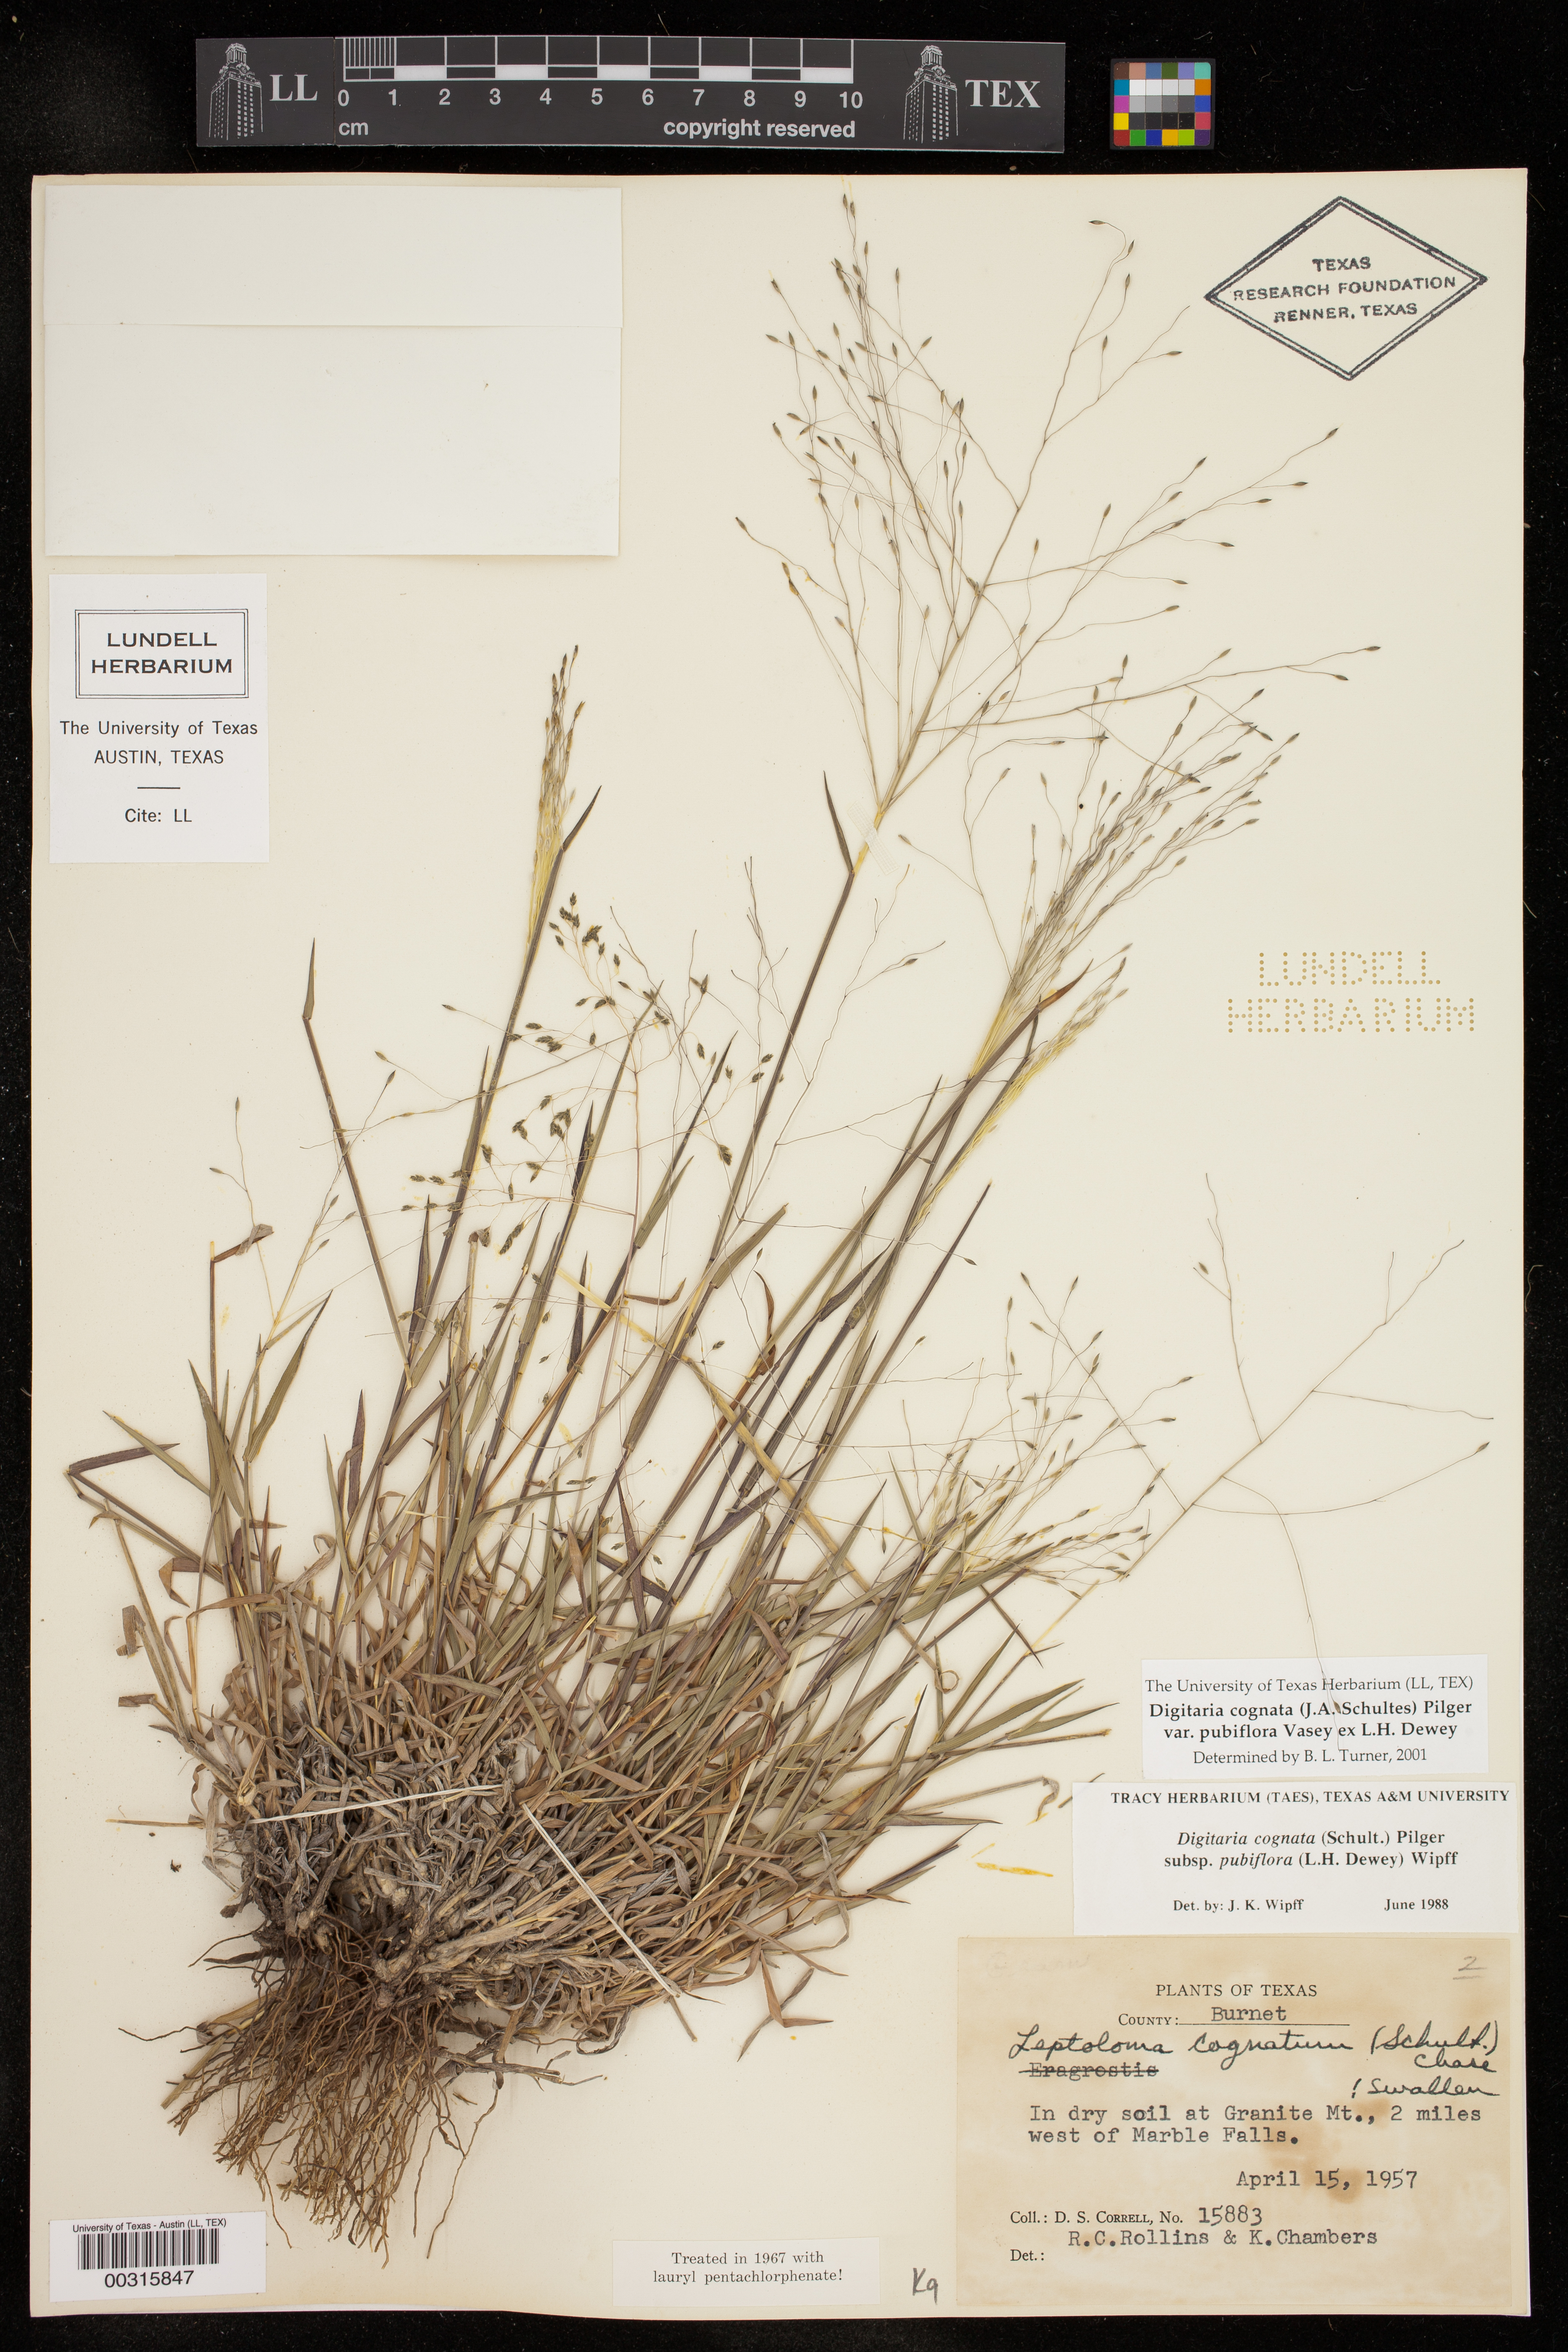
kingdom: Plantae
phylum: Tracheophyta
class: Liliopsida
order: Poales
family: Poaceae
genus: Digitaria
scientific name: Digitaria cognata
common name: Fall witchgrass
